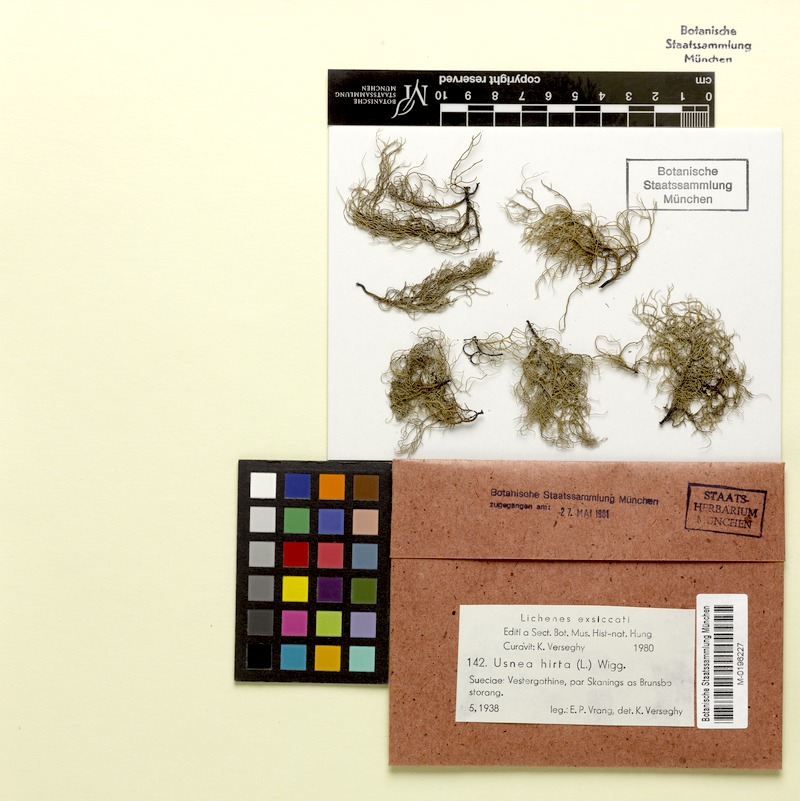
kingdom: Fungi
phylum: Ascomycota
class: Lecanoromycetes
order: Lecanorales
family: Parmeliaceae
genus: Usnea
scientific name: Usnea hirta
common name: Bristly beard lichen
